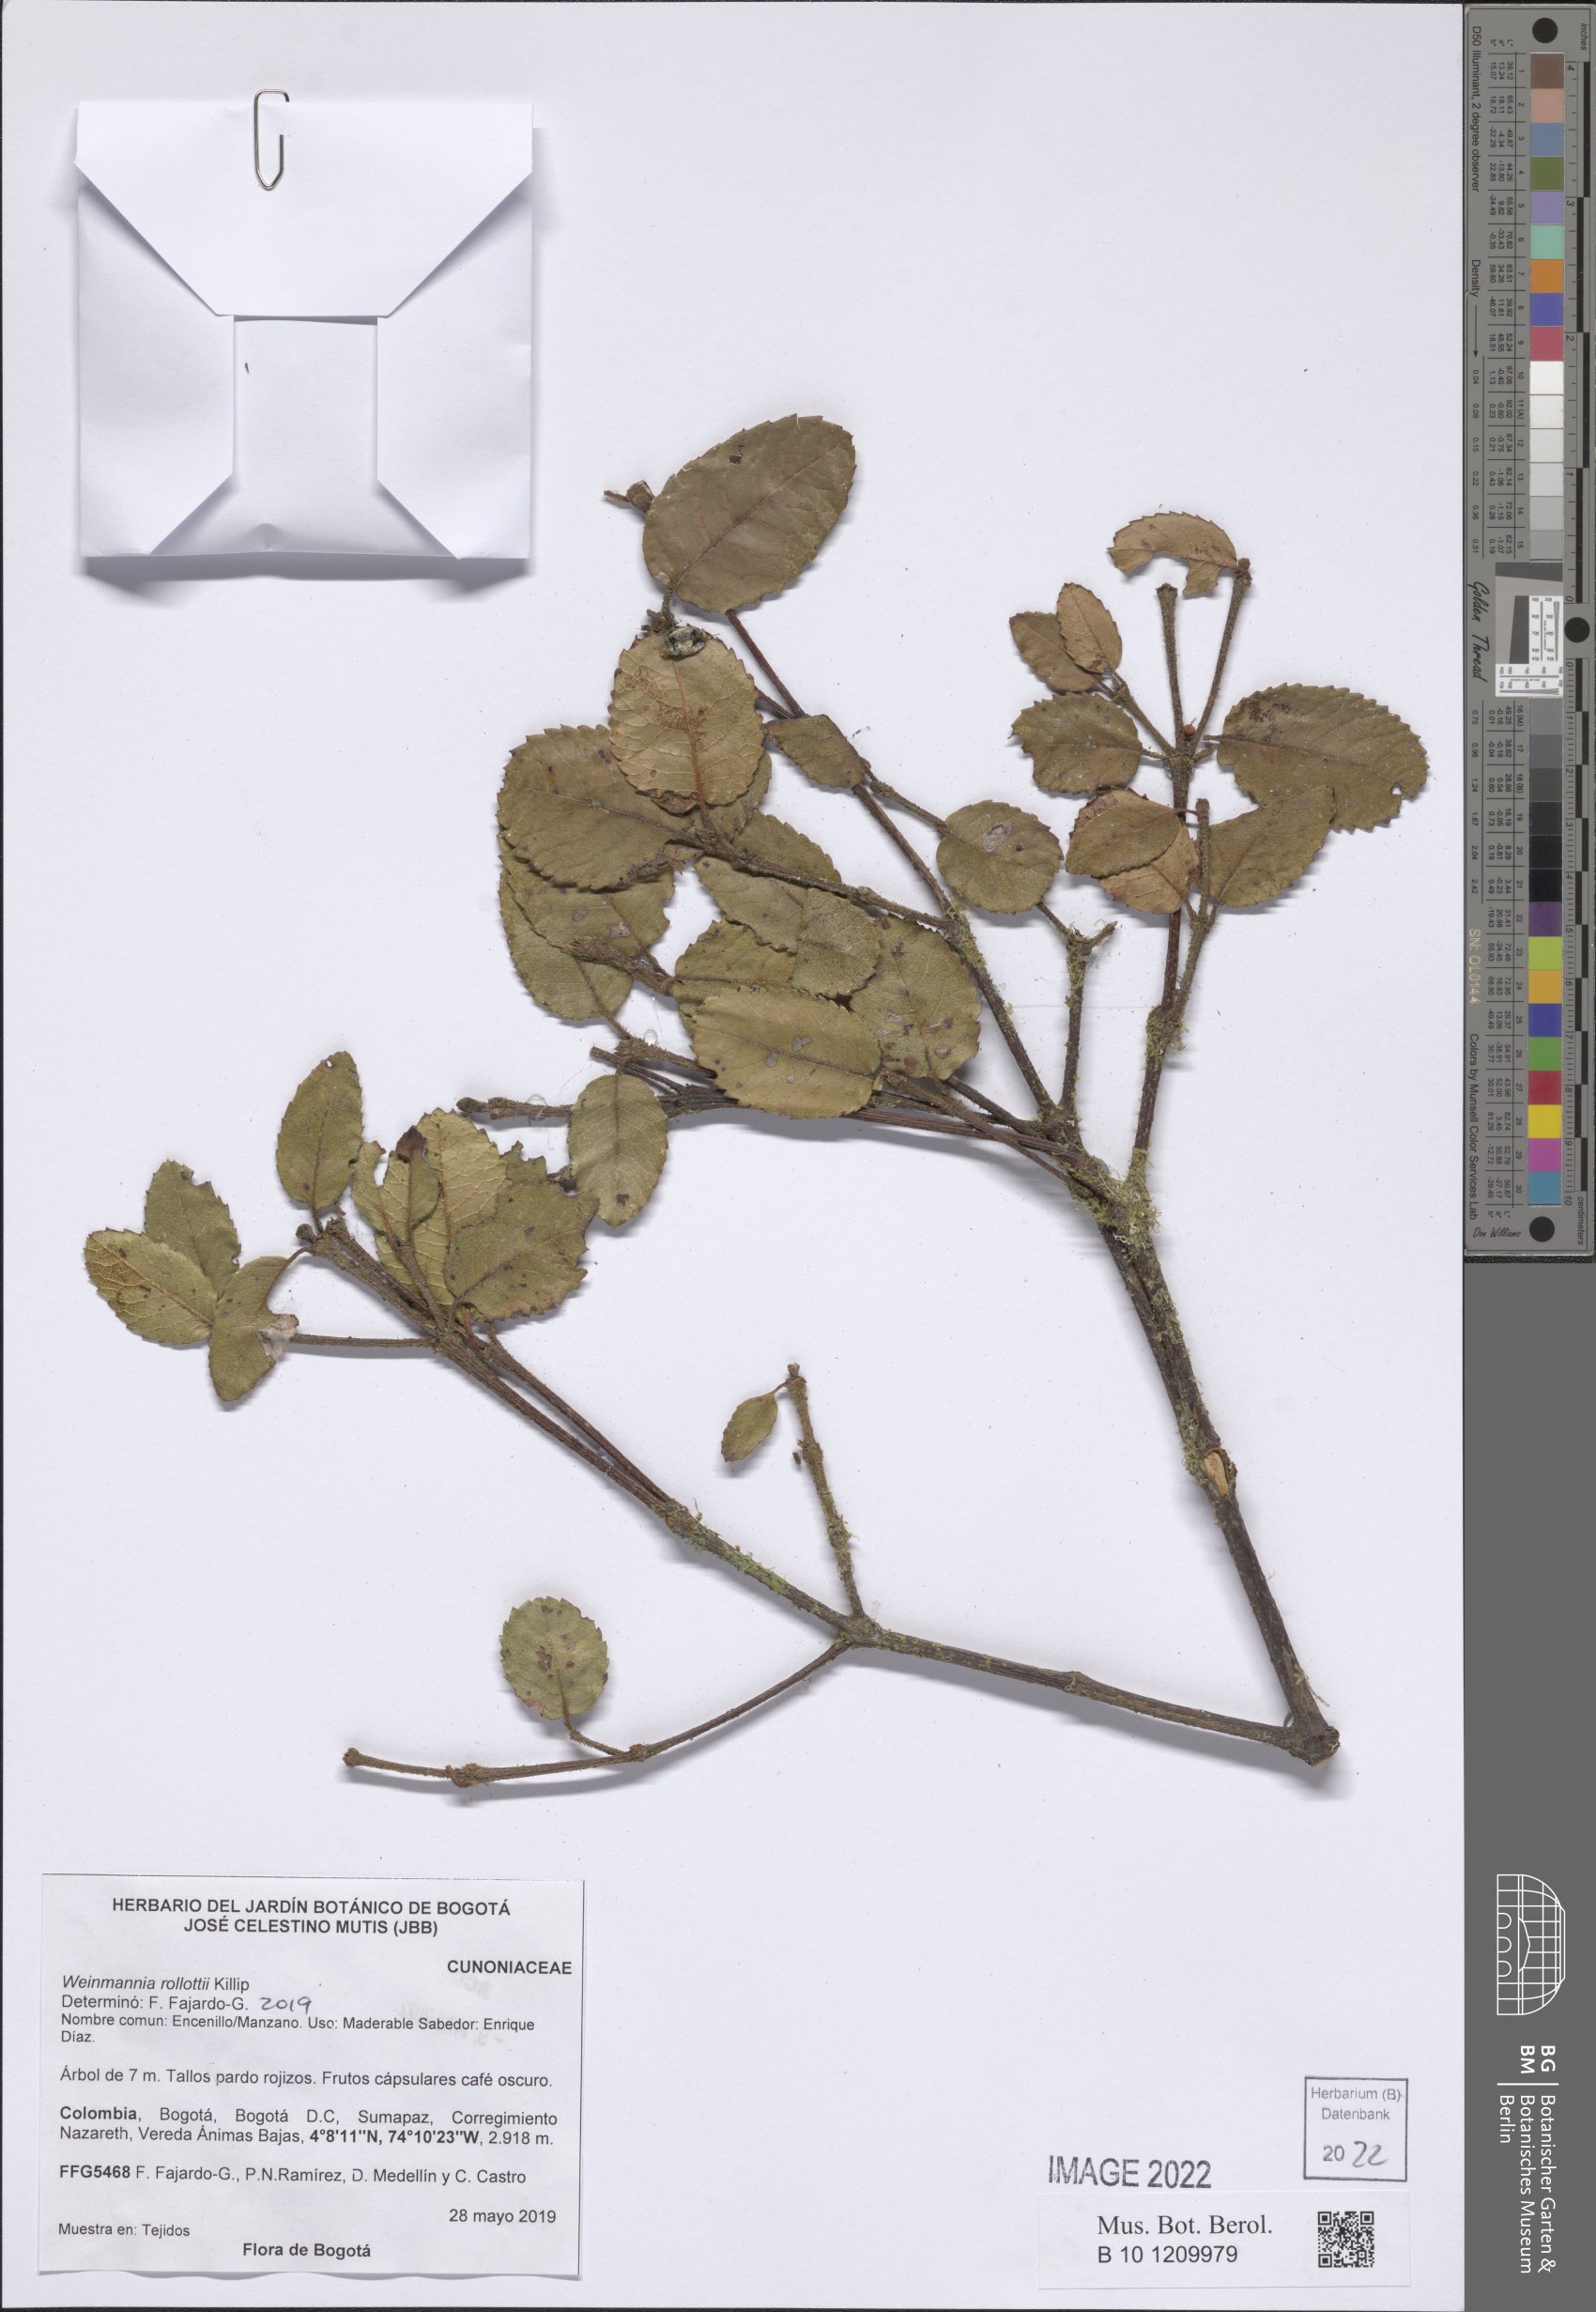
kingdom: Plantae
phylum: Tracheophyta
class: Magnoliopsida
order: Oxalidales
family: Cunoniaceae
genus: Weinmannia
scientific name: Weinmannia rollottii
